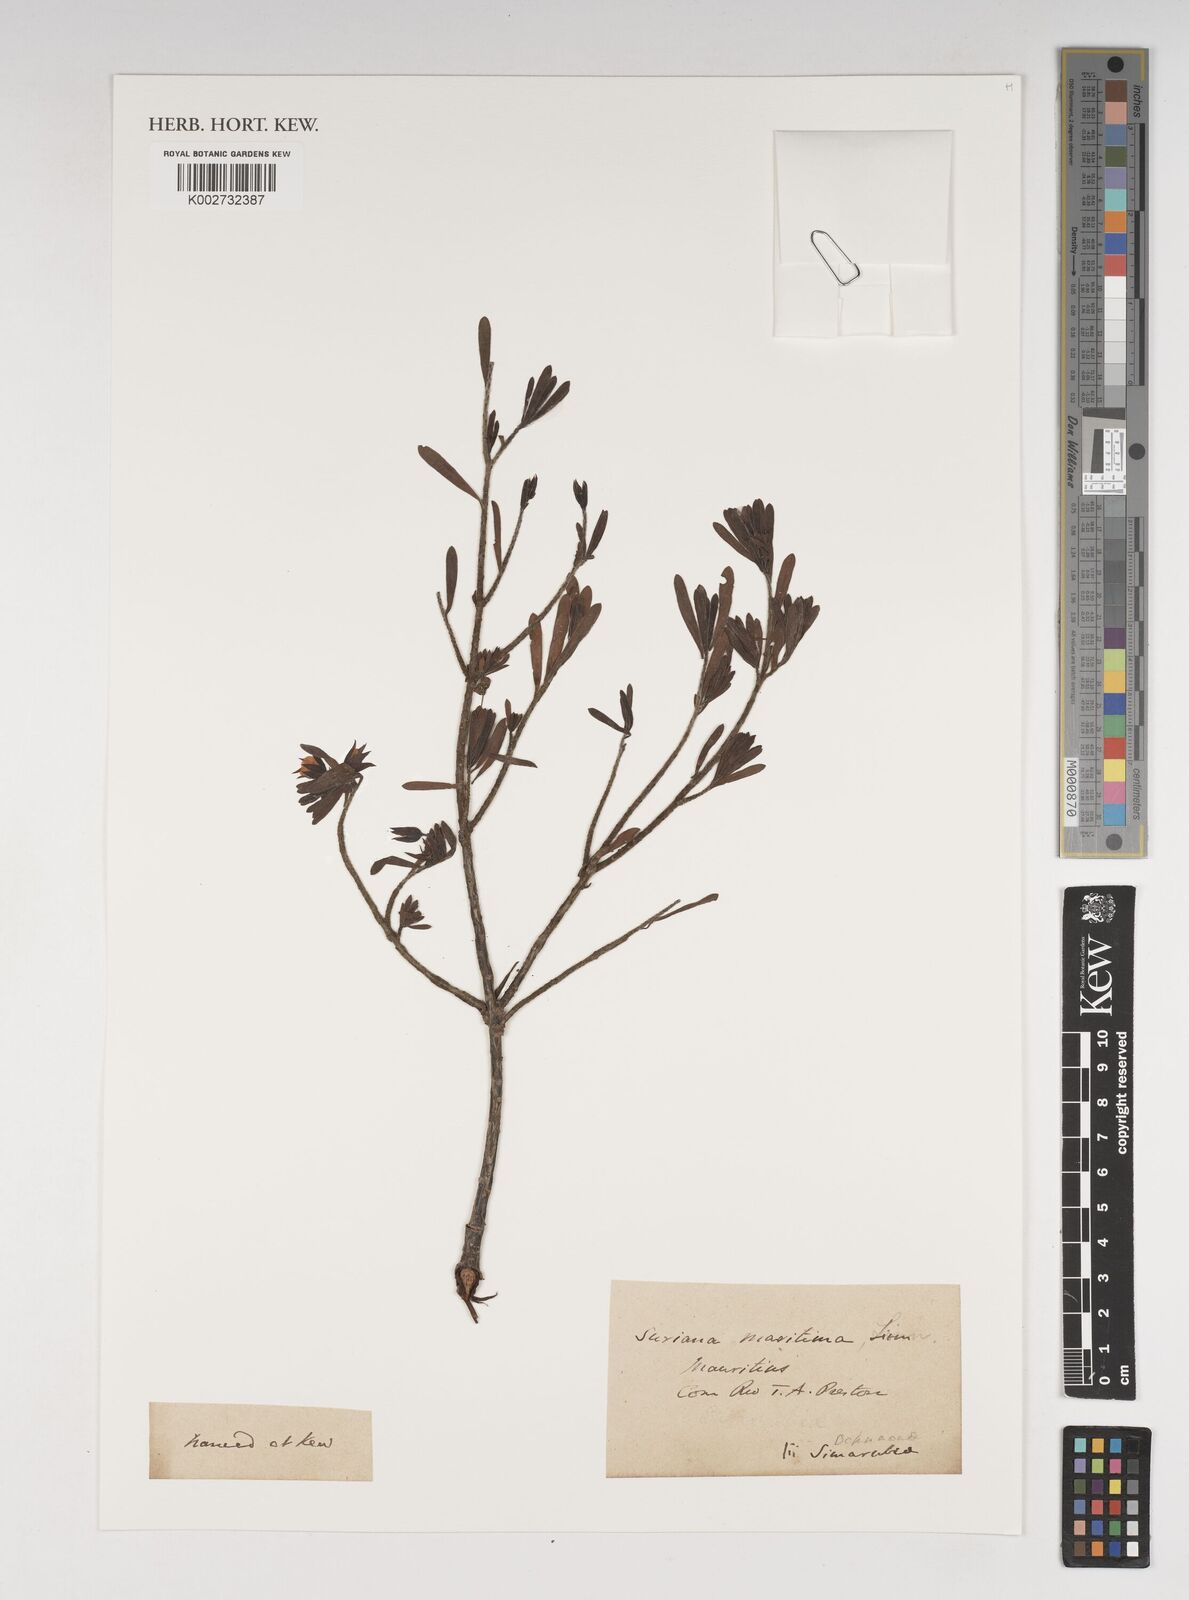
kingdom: Plantae
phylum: Tracheophyta
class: Magnoliopsida
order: Fabales
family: Surianaceae
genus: Suriana
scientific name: Suriana maritima
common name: Bay-cedar
